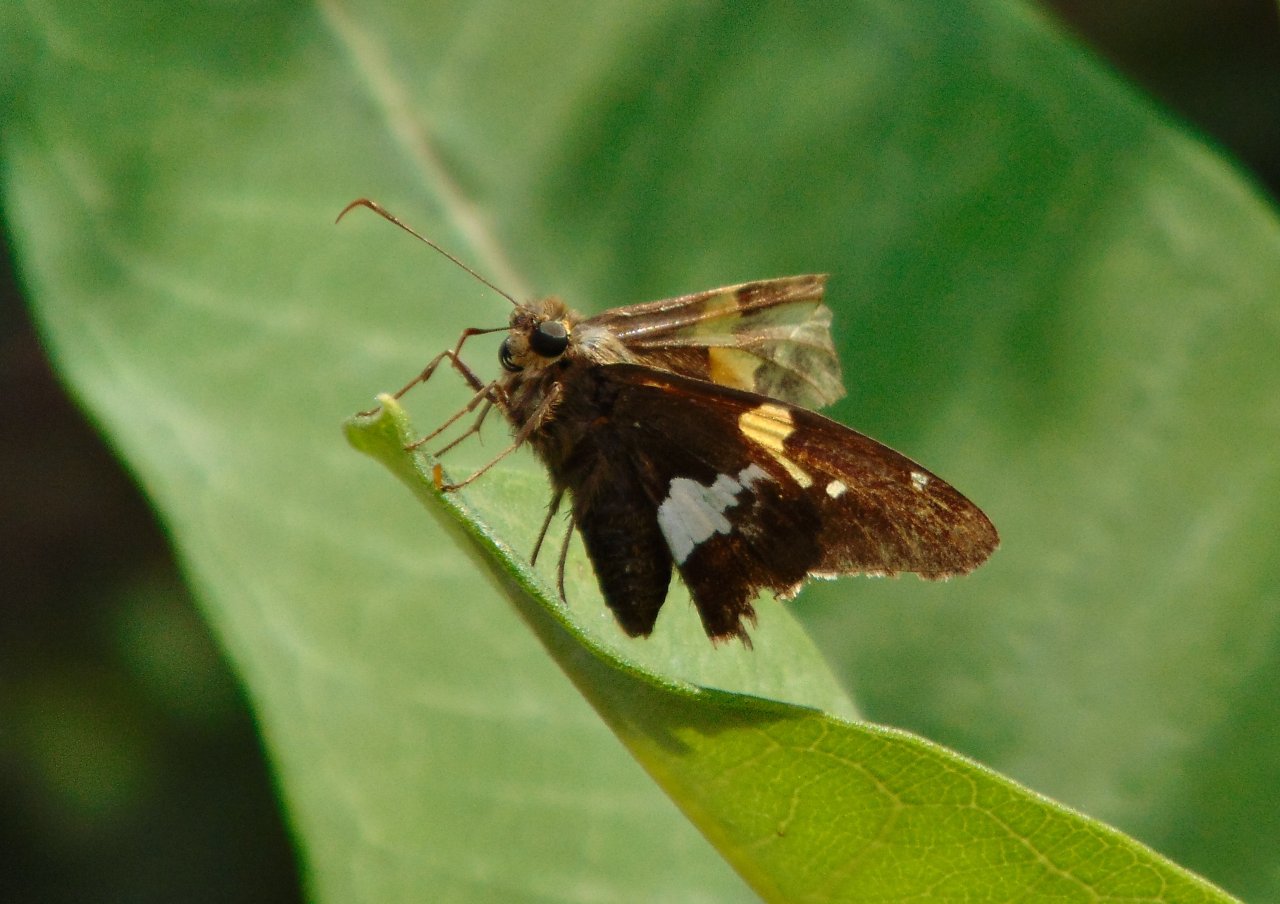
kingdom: Animalia
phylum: Arthropoda
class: Insecta
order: Lepidoptera
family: Hesperiidae
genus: Epargyreus
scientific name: Epargyreus clarus
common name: Silver-spotted Skipper
